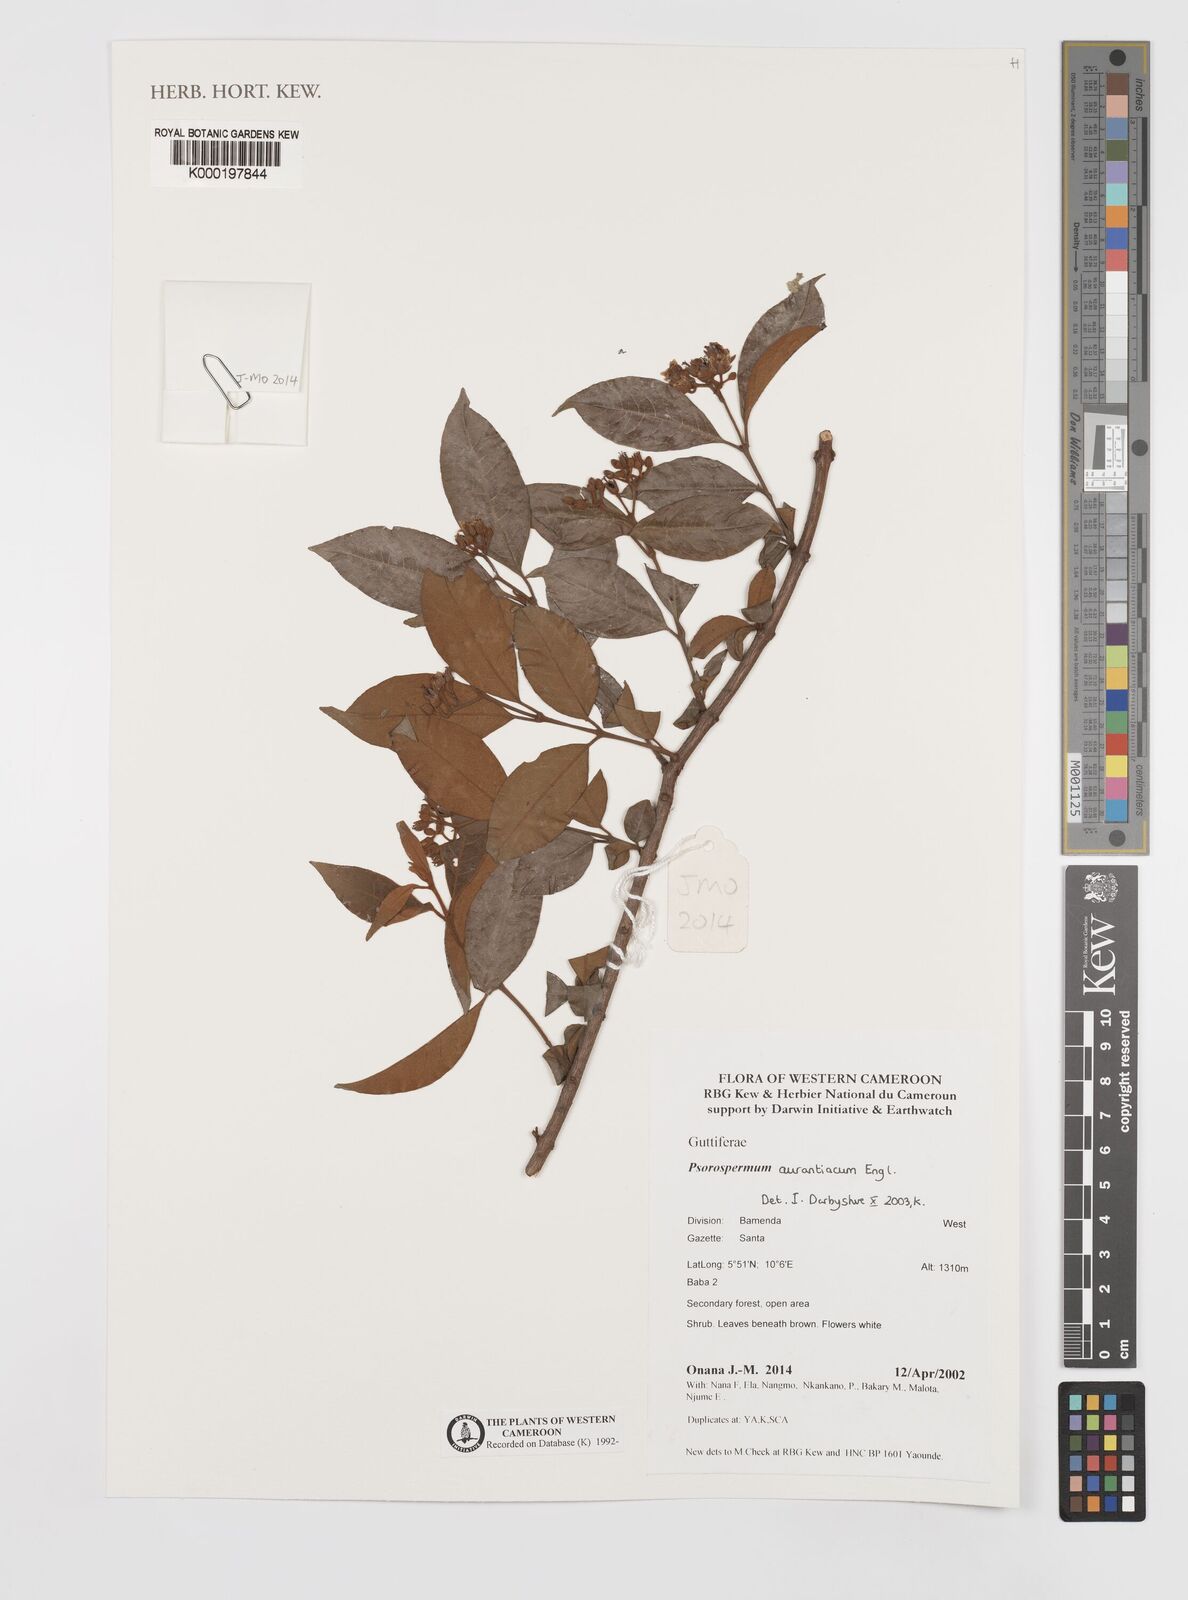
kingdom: Plantae
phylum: Tracheophyta
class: Magnoliopsida
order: Malpighiales
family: Hypericaceae
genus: Psorospermum
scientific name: Psorospermum aurantiacum
